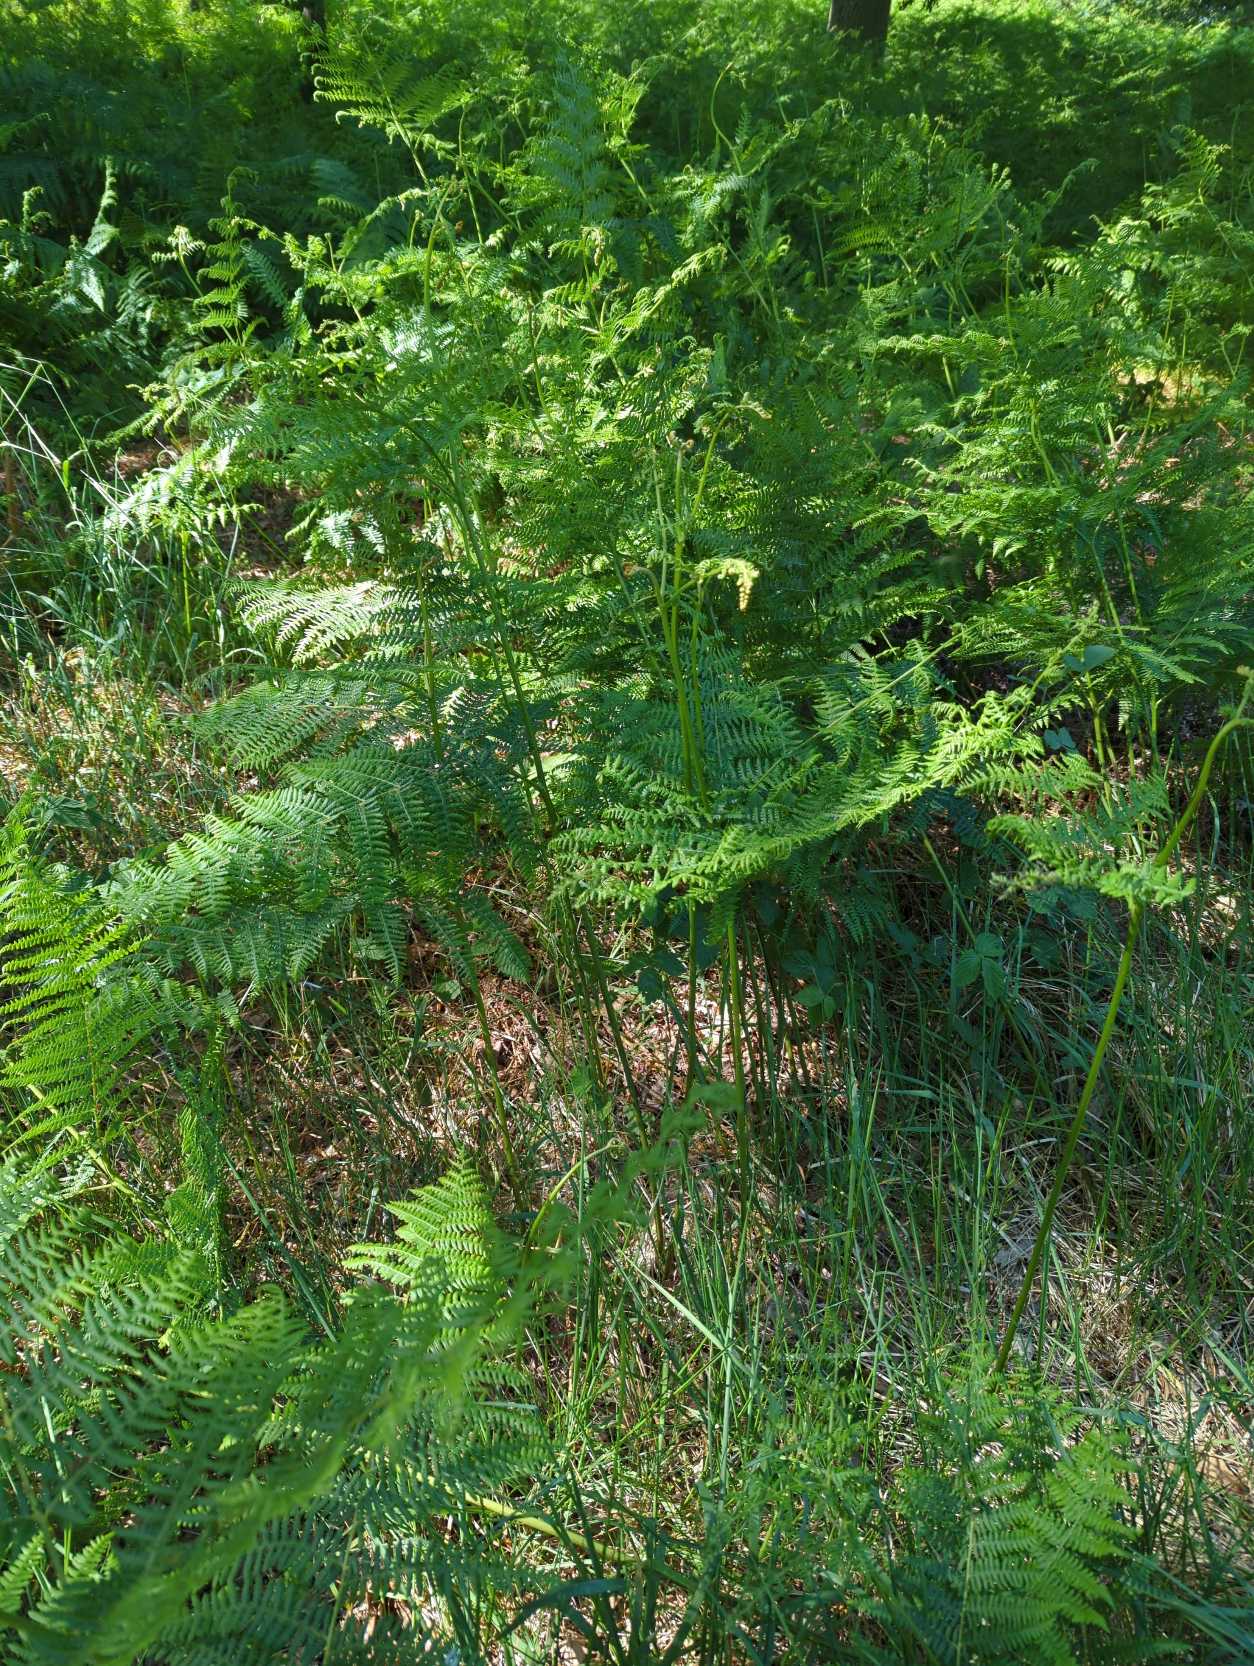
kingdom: Plantae
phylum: Tracheophyta
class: Polypodiopsida
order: Polypodiales
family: Dennstaedtiaceae
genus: Pteridium
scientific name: Pteridium aquilinum
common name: Ørnebregne
